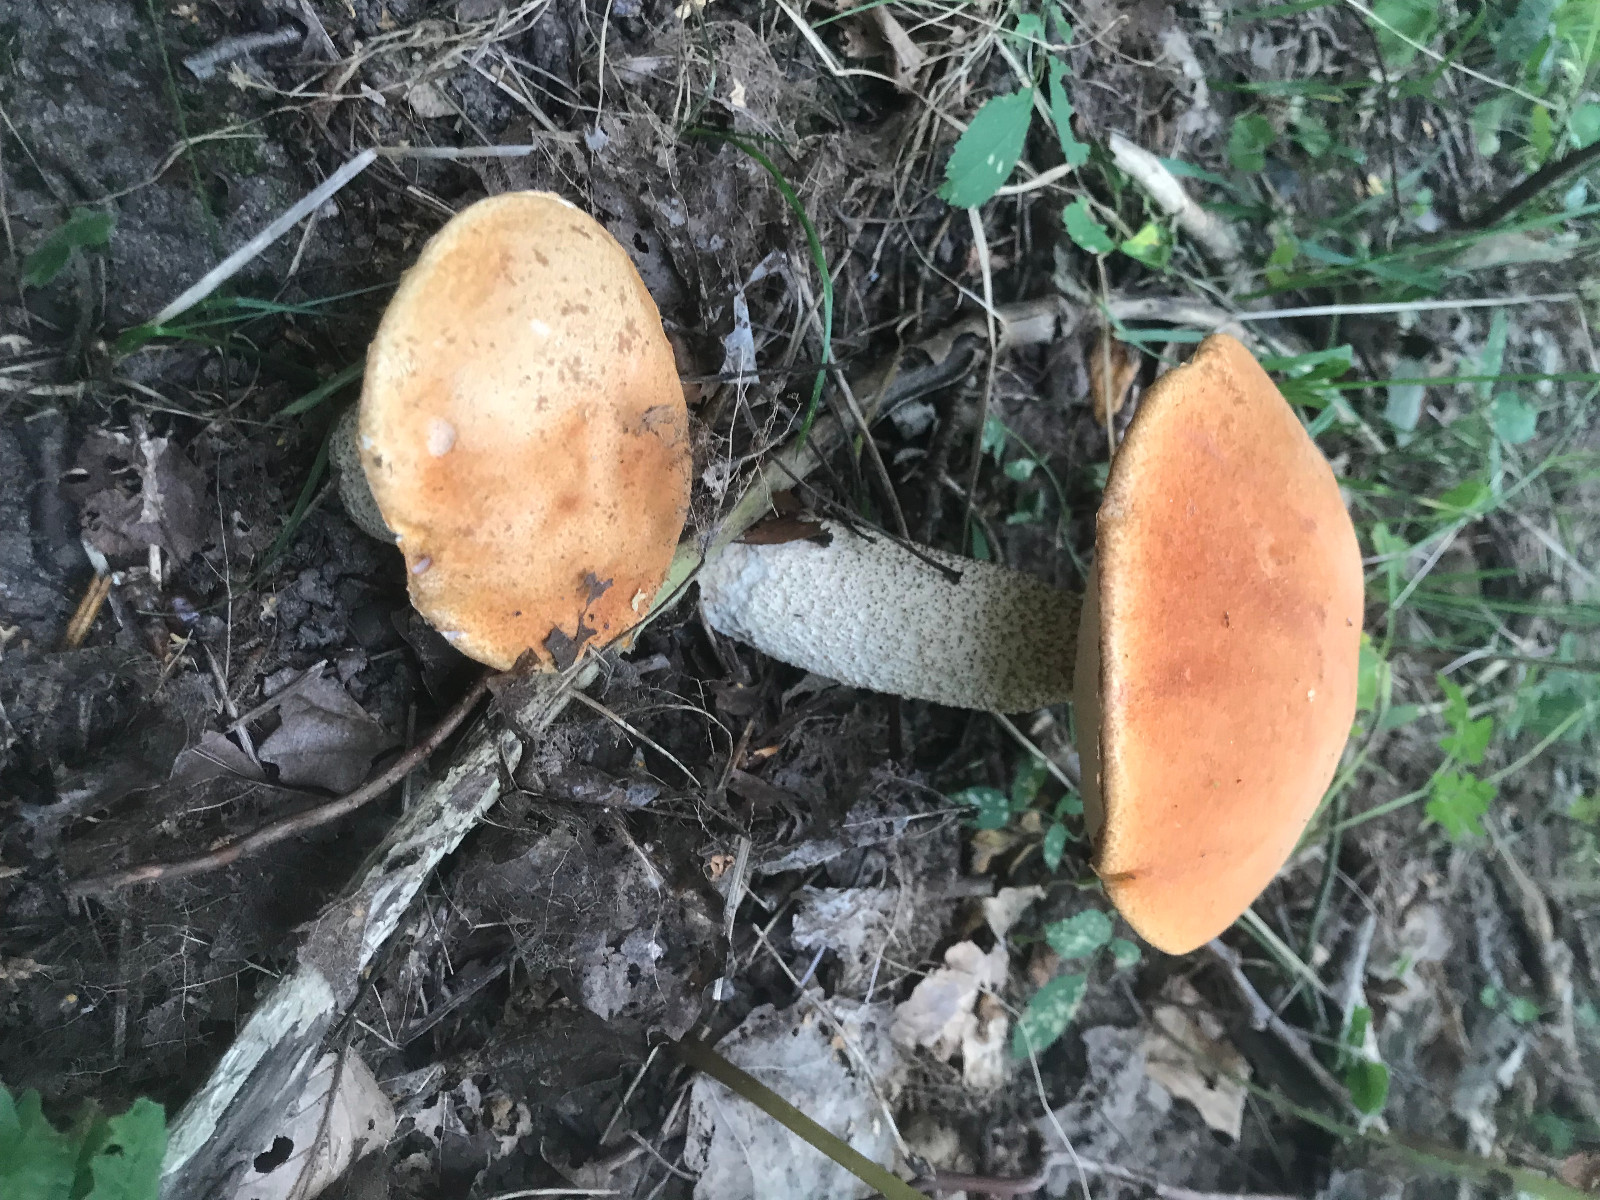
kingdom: Fungi
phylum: Basidiomycota
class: Agaricomycetes
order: Boletales
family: Boletaceae
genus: Leccinum
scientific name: Leccinum versipelle
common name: orange skælrørhat
